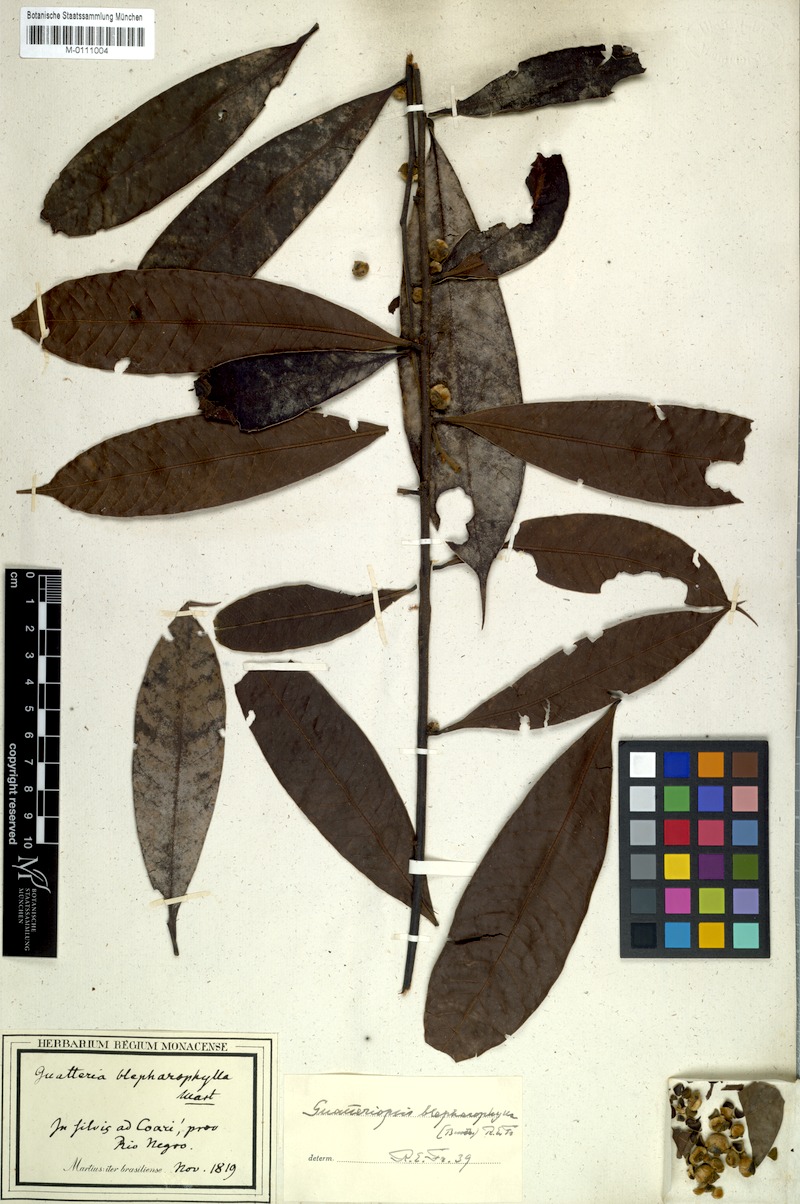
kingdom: Plantae
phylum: Tracheophyta
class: Magnoliopsida
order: Magnoliales
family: Annonaceae
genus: Guatteria
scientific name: Guatteria blepharophylla
